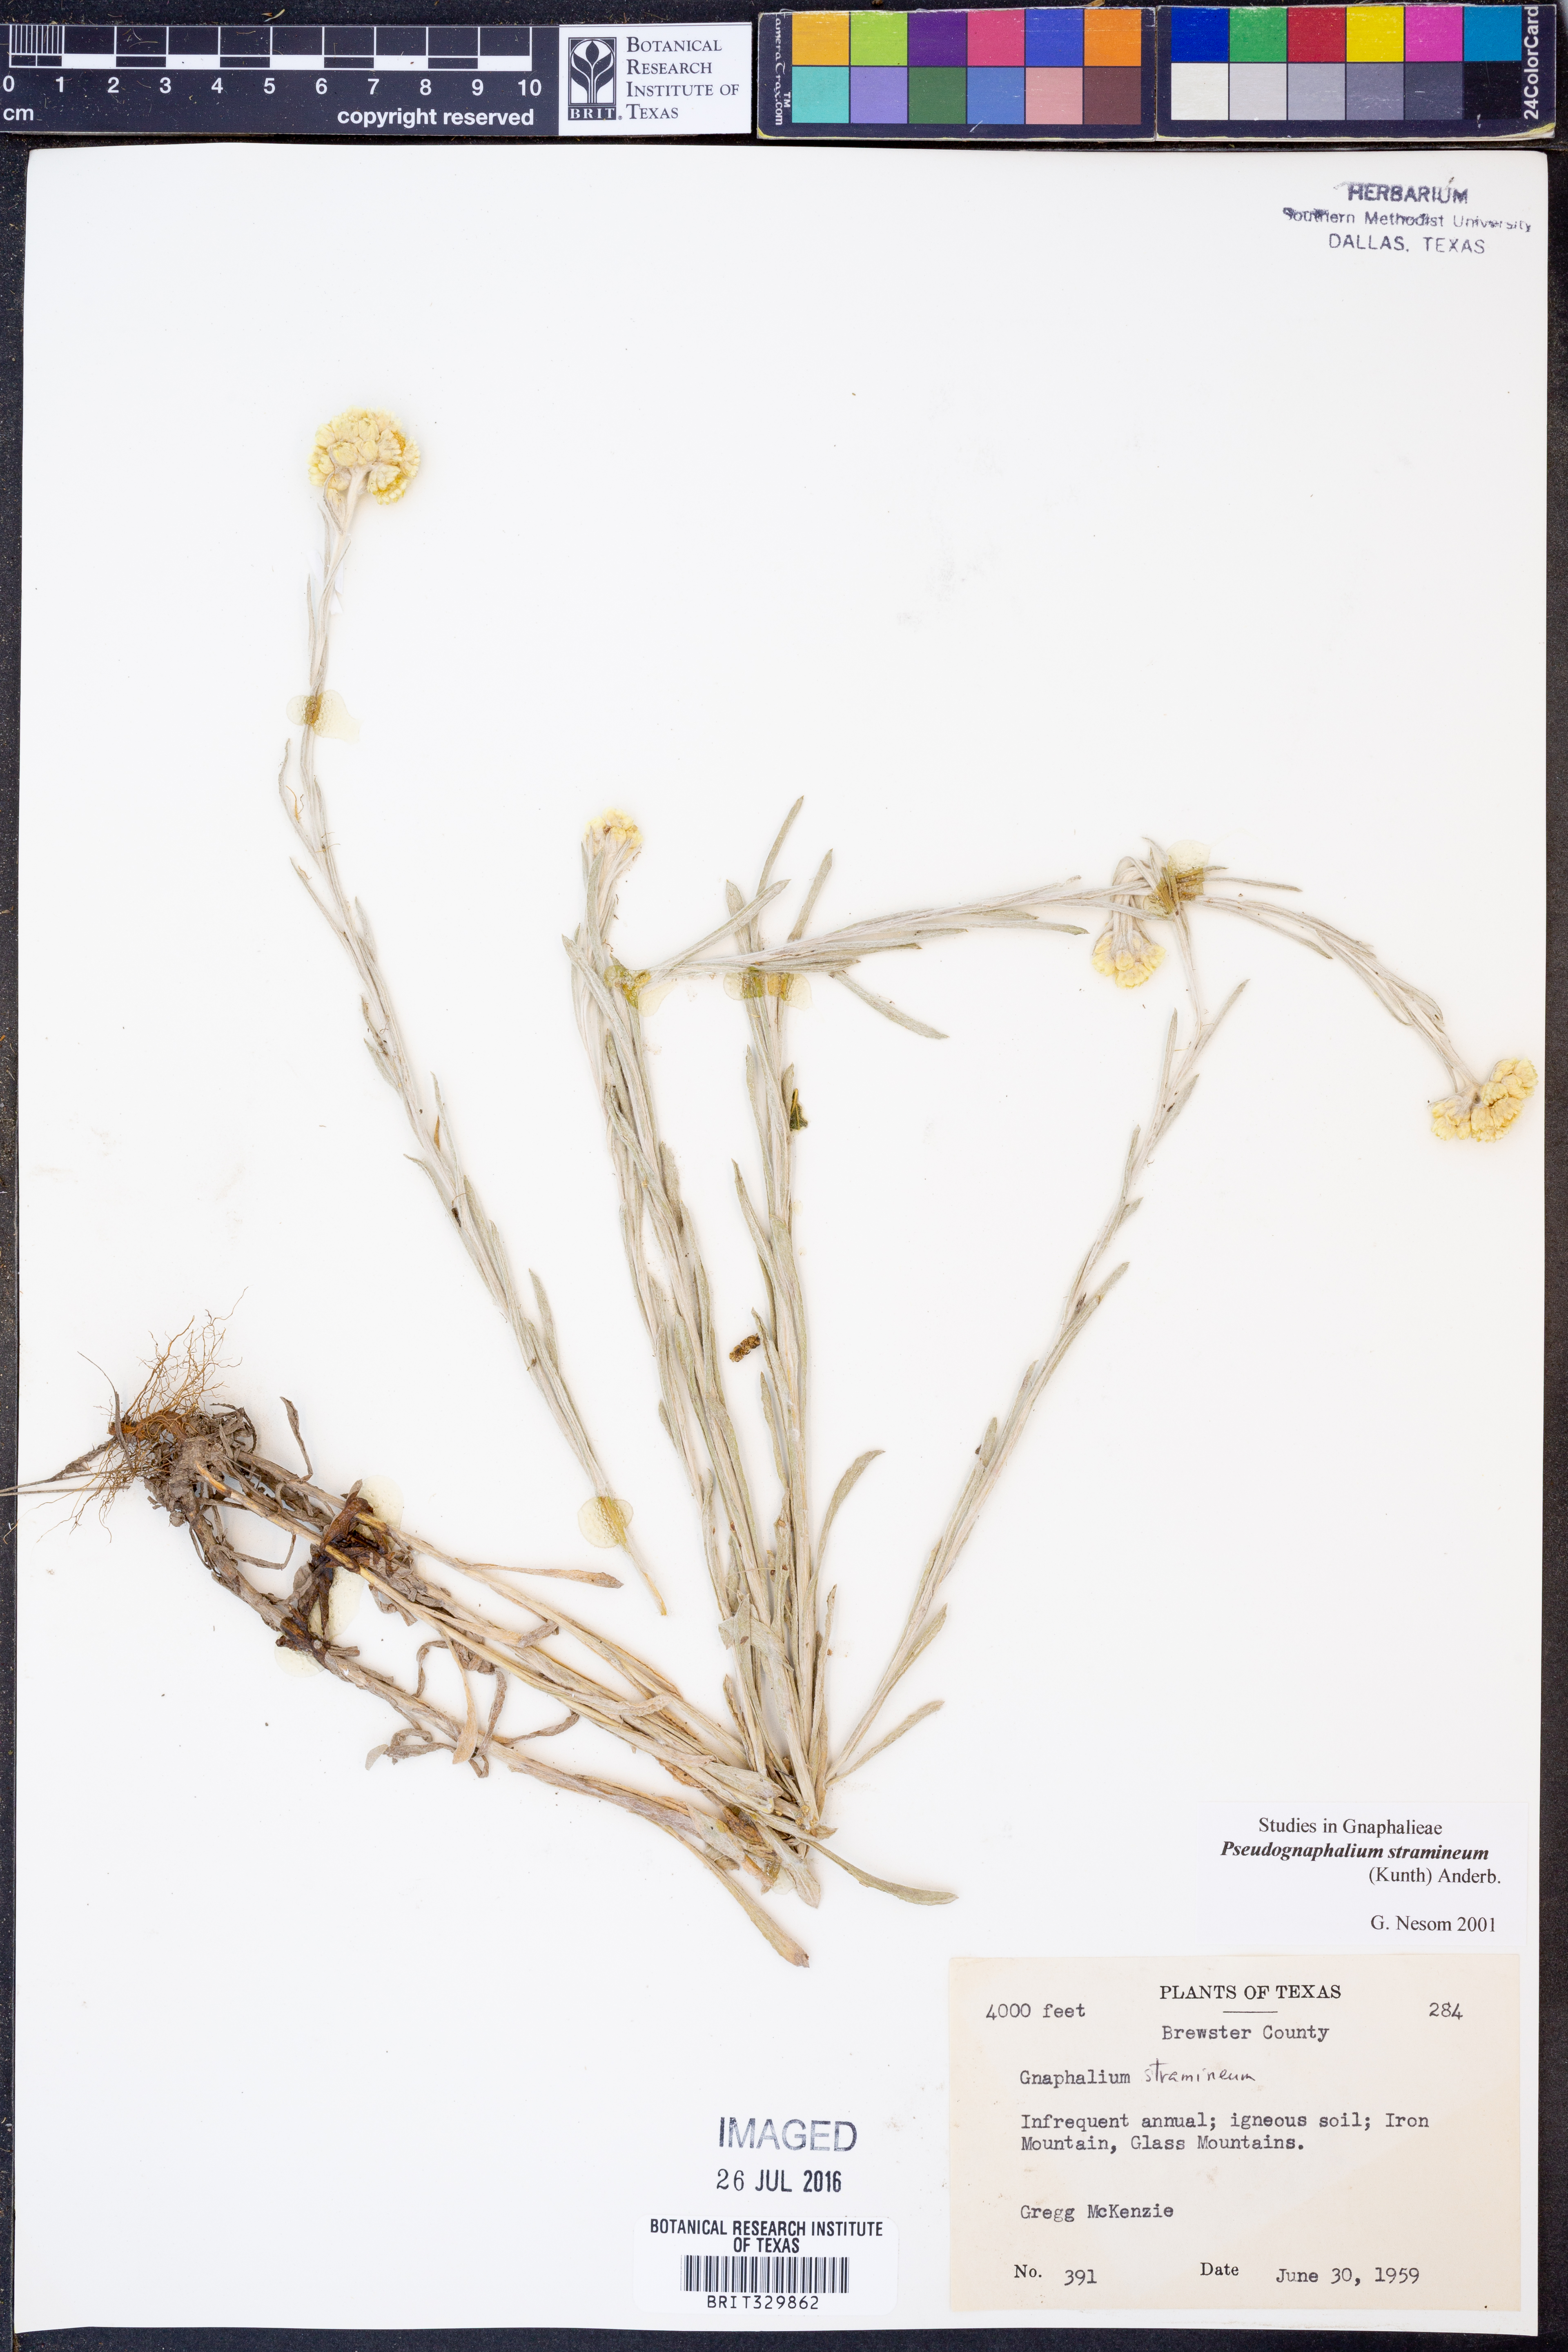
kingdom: Plantae
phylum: Tracheophyta
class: Magnoliopsida
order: Asterales
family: Asteraceae
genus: Pseudognaphalium
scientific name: Pseudognaphalium stramineum
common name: Cotton-batting-plant
